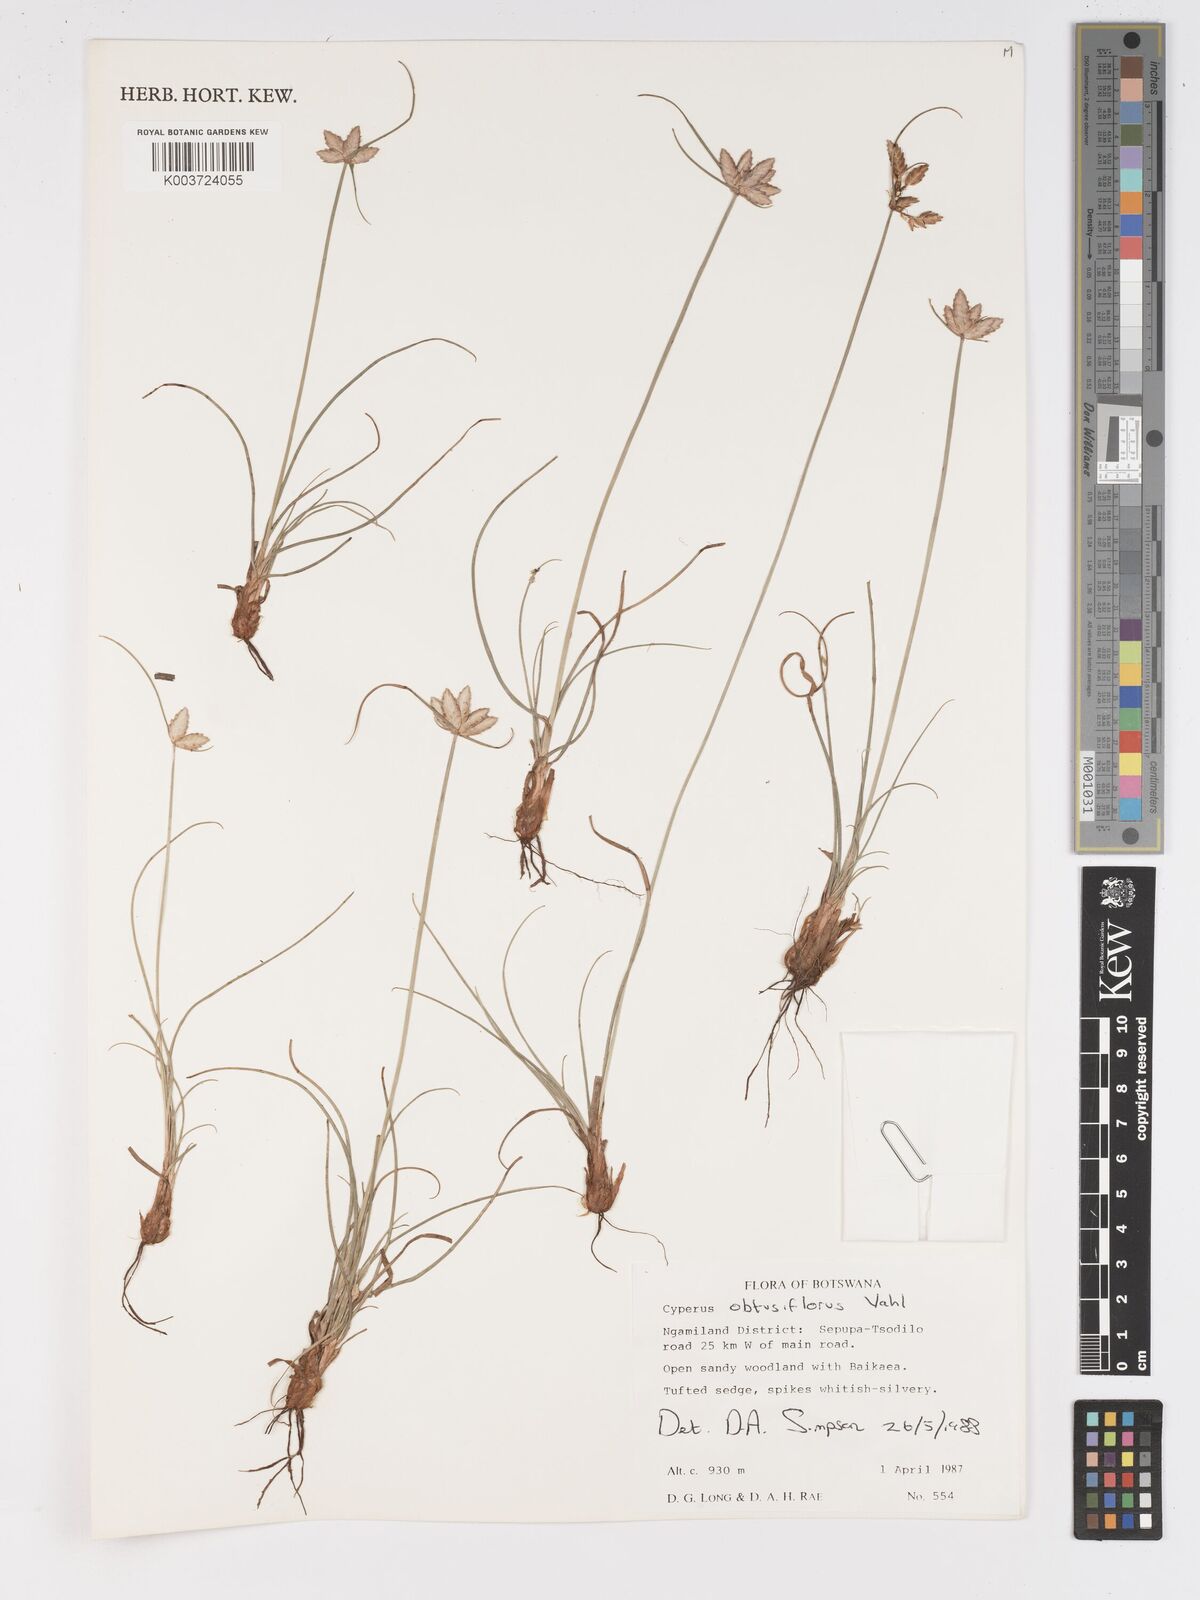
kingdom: Plantae
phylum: Tracheophyta
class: Liliopsida
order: Poales
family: Cyperaceae
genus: Cyperus
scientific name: Cyperus niveus
